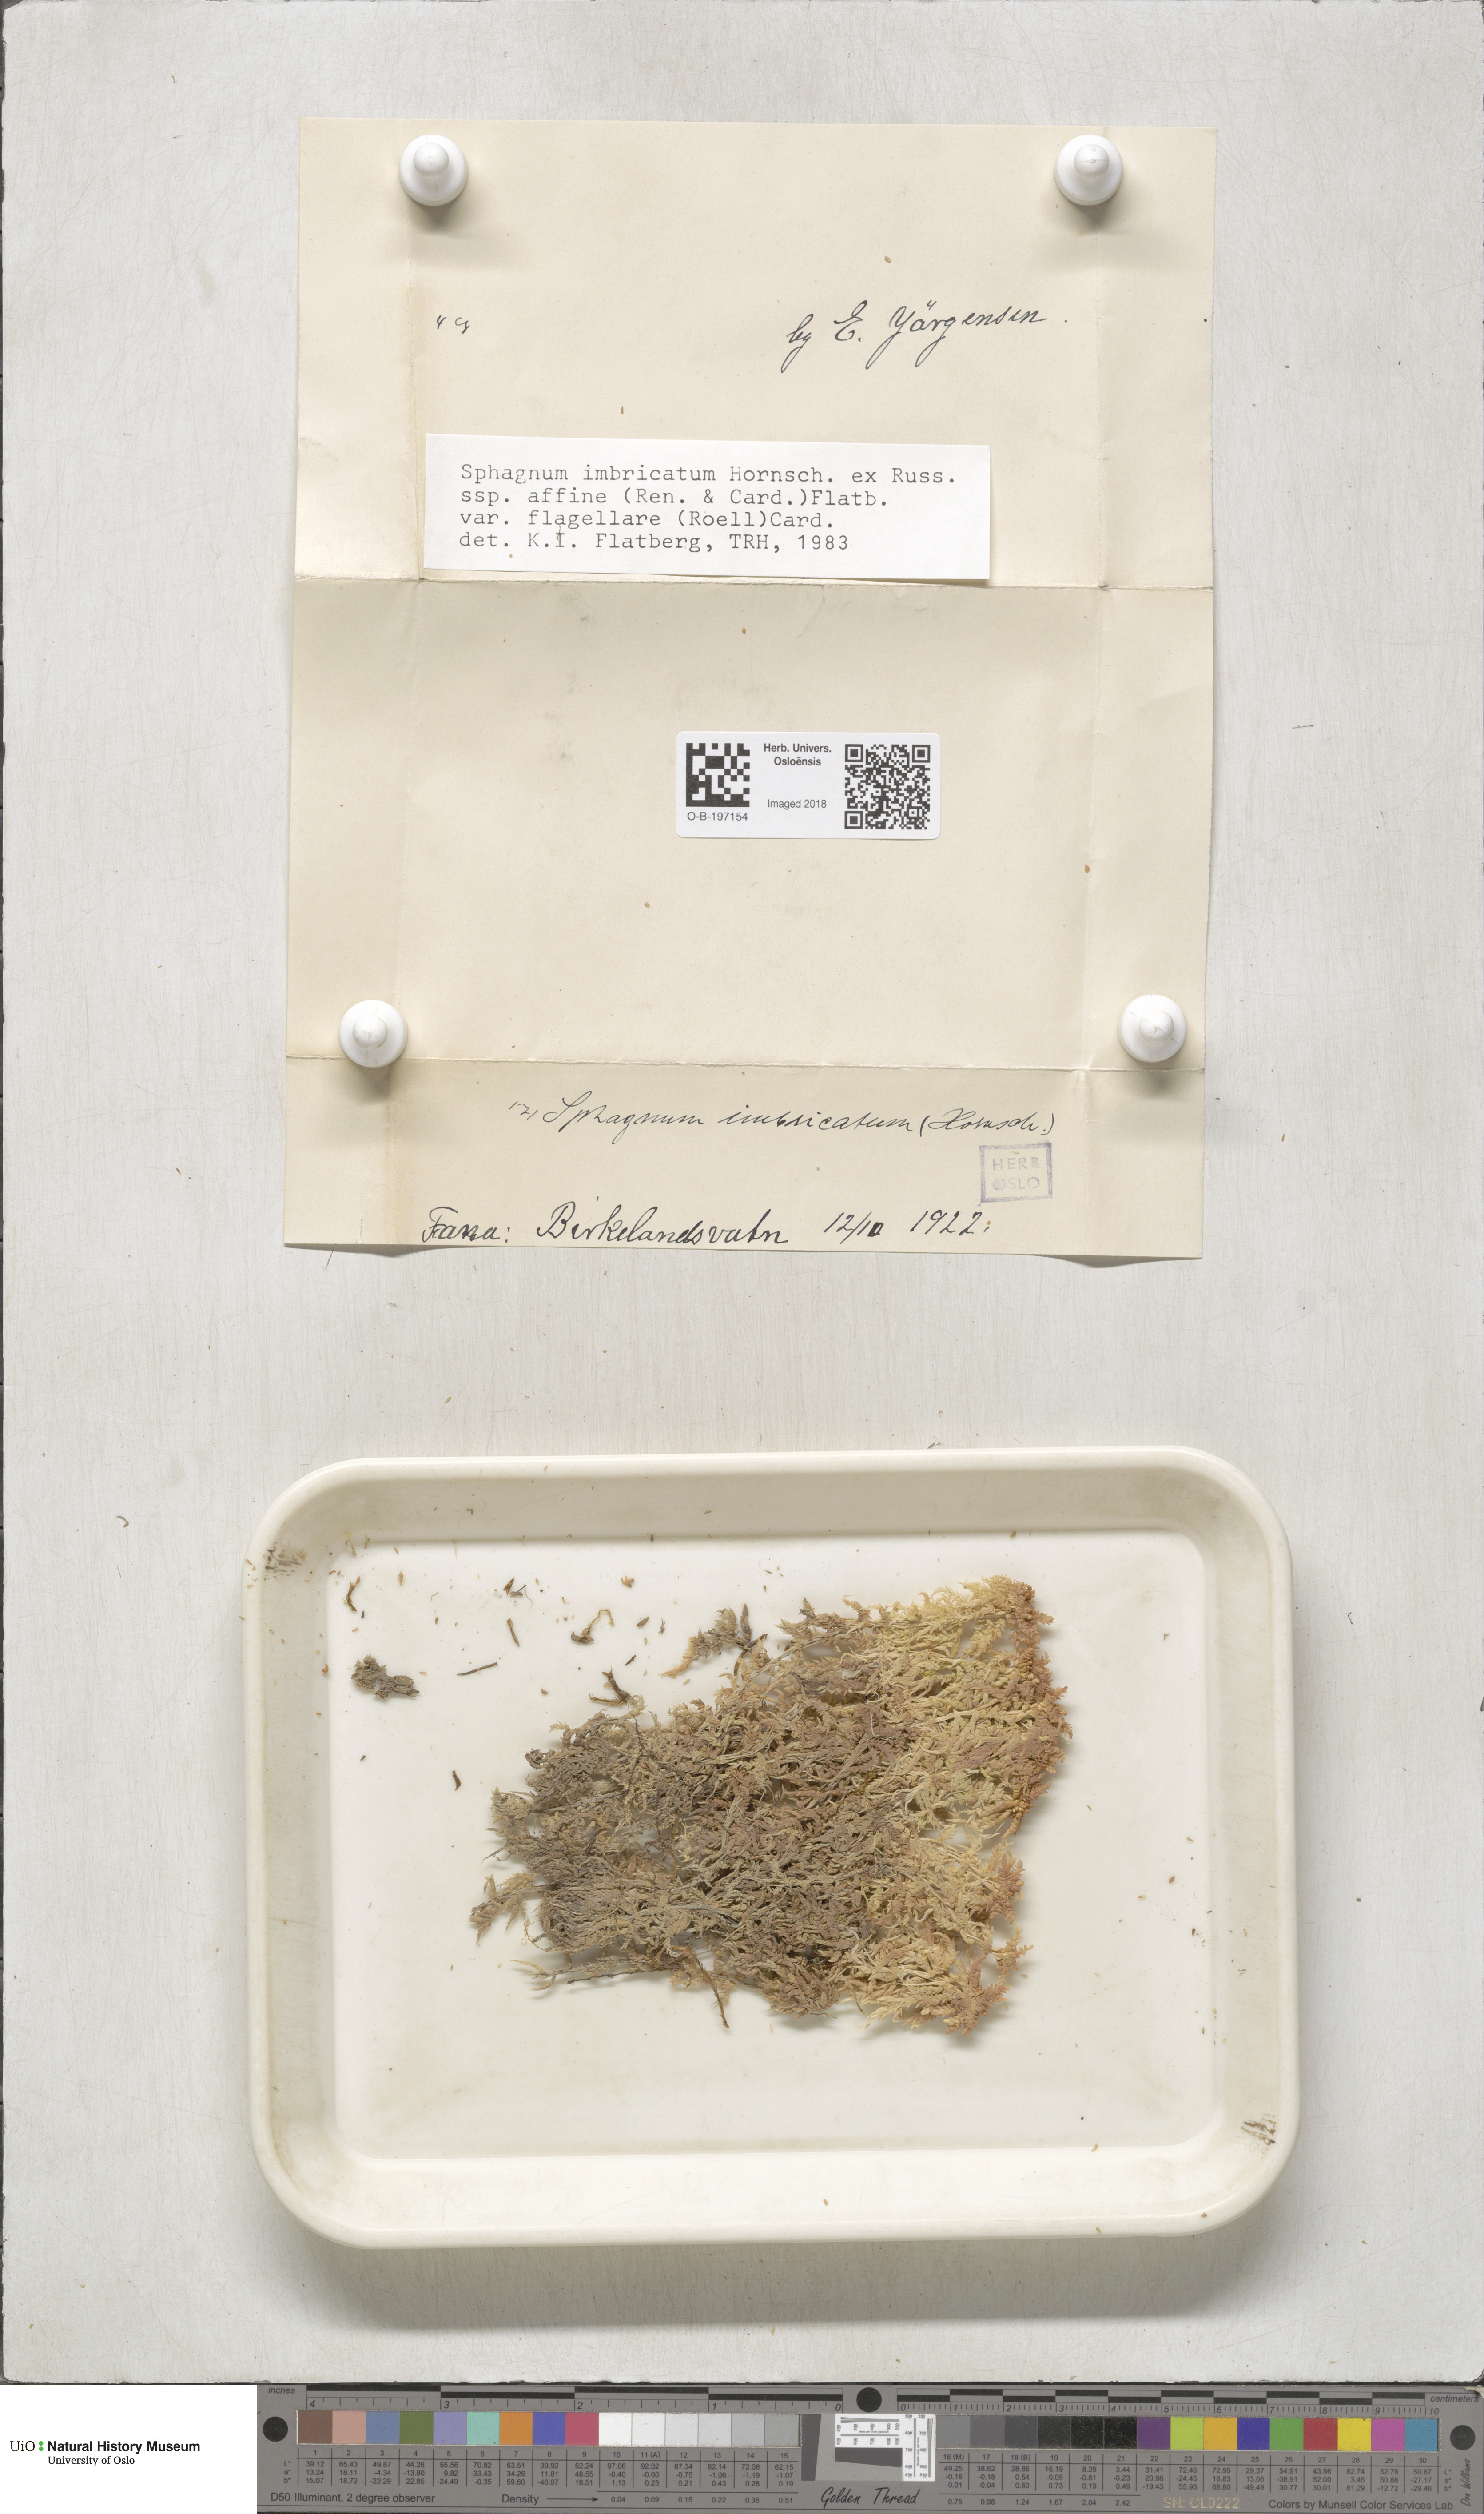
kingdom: Plantae
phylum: Bryophyta
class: Sphagnopsida
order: Sphagnales
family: Sphagnaceae
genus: Sphagnum
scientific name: Sphagnum affine
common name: Imbricate peat moss
